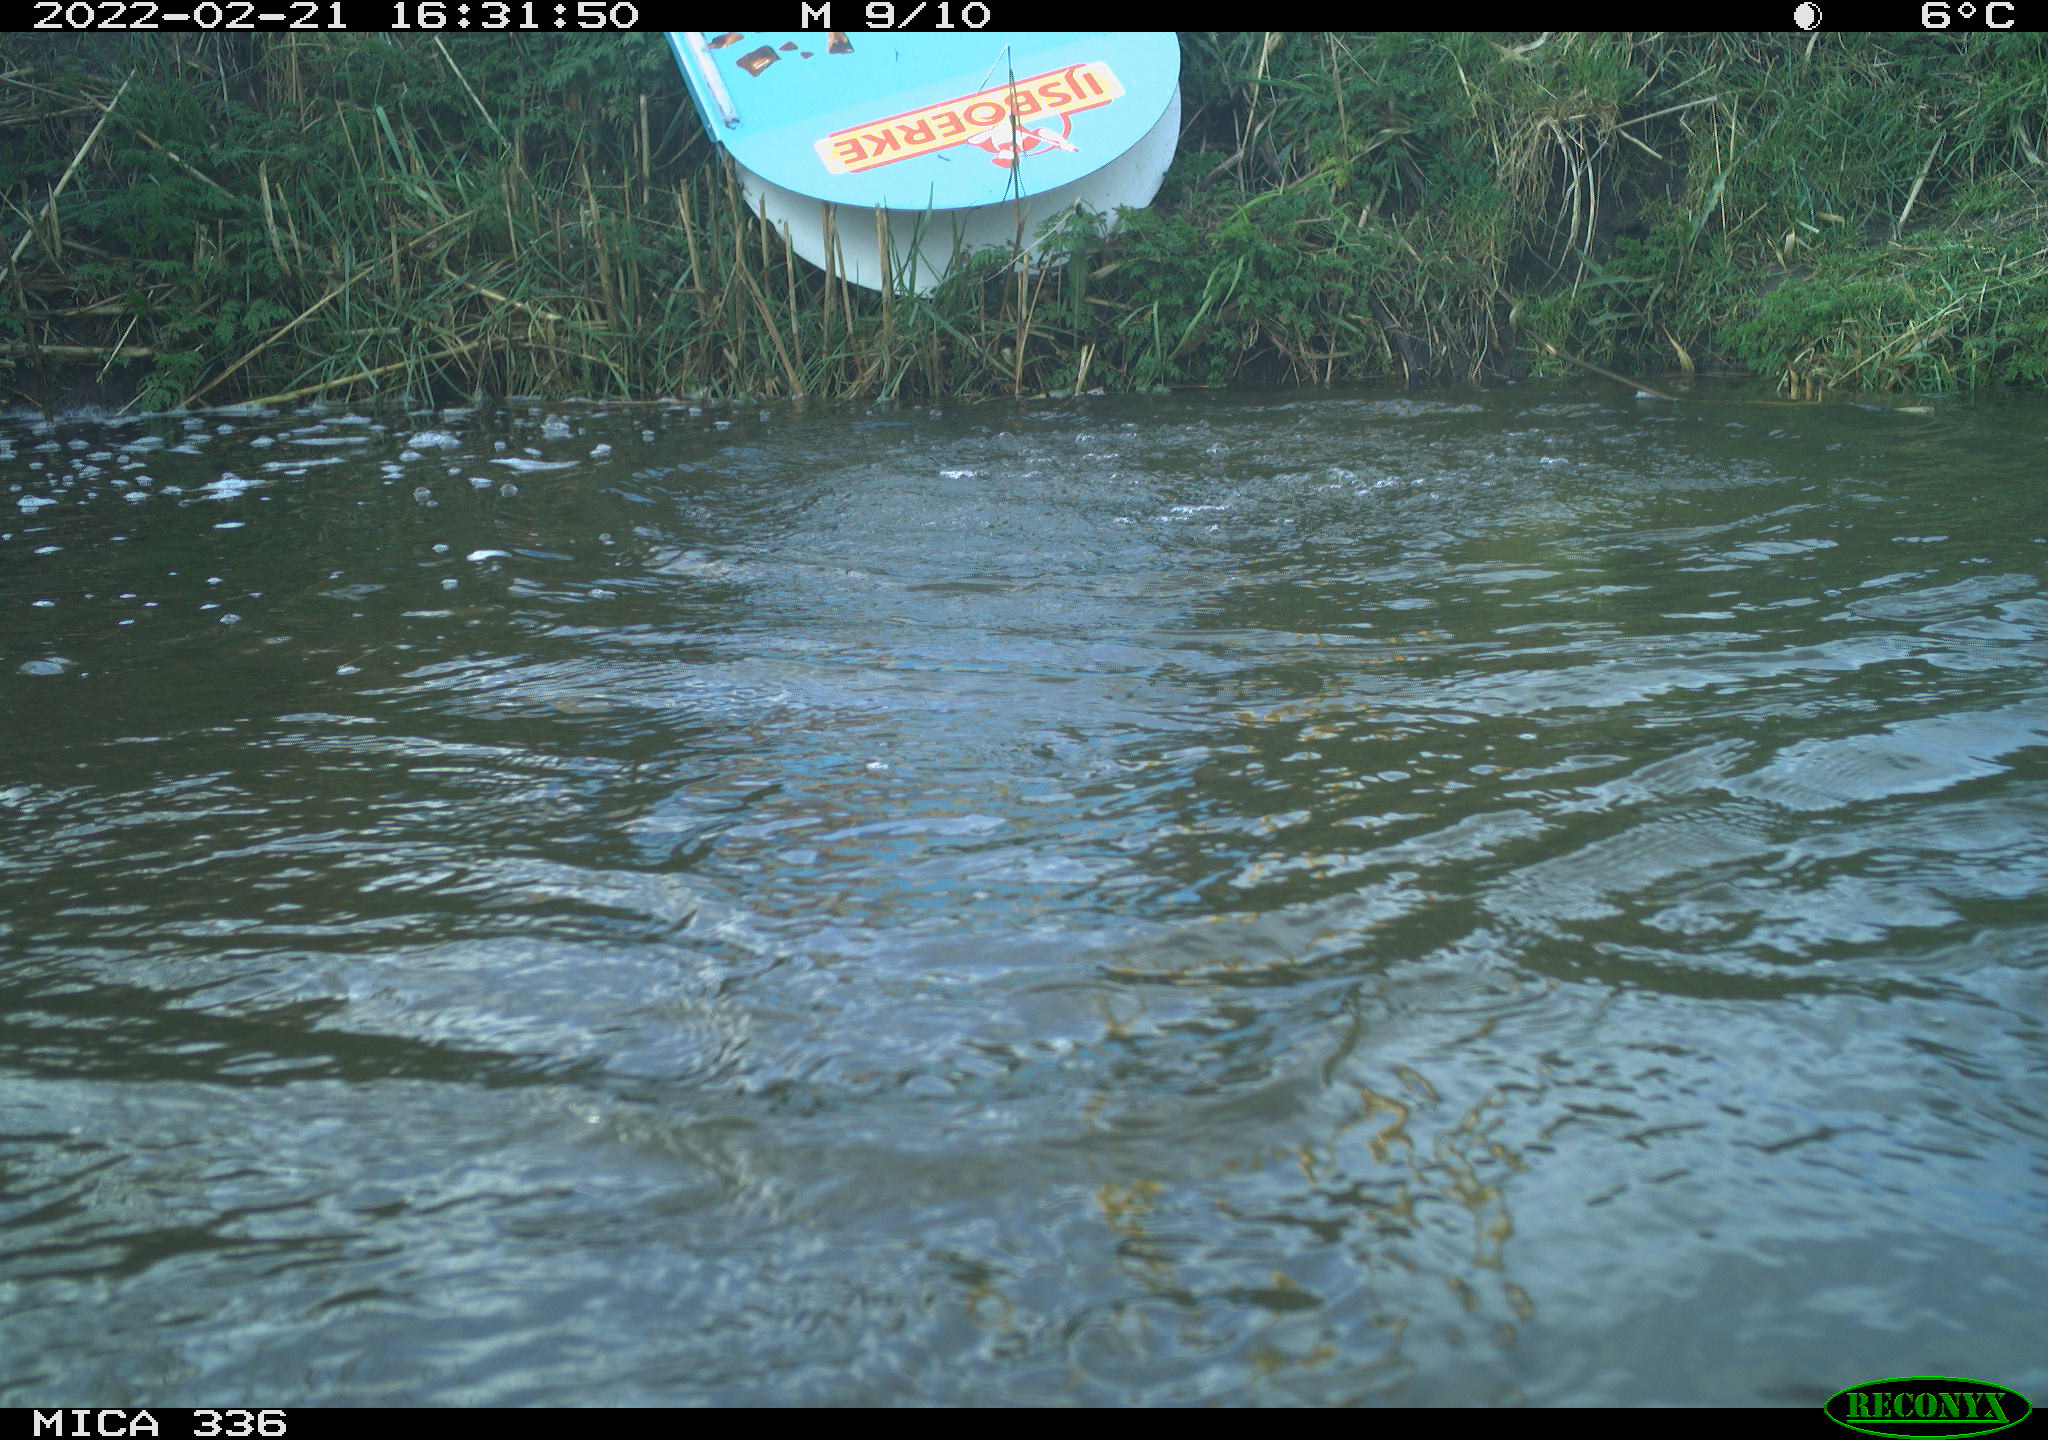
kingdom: Animalia
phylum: Chordata
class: Aves
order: Podicipediformes
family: Podicipedidae
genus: Podiceps
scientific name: Podiceps cristatus
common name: Great crested grebe
